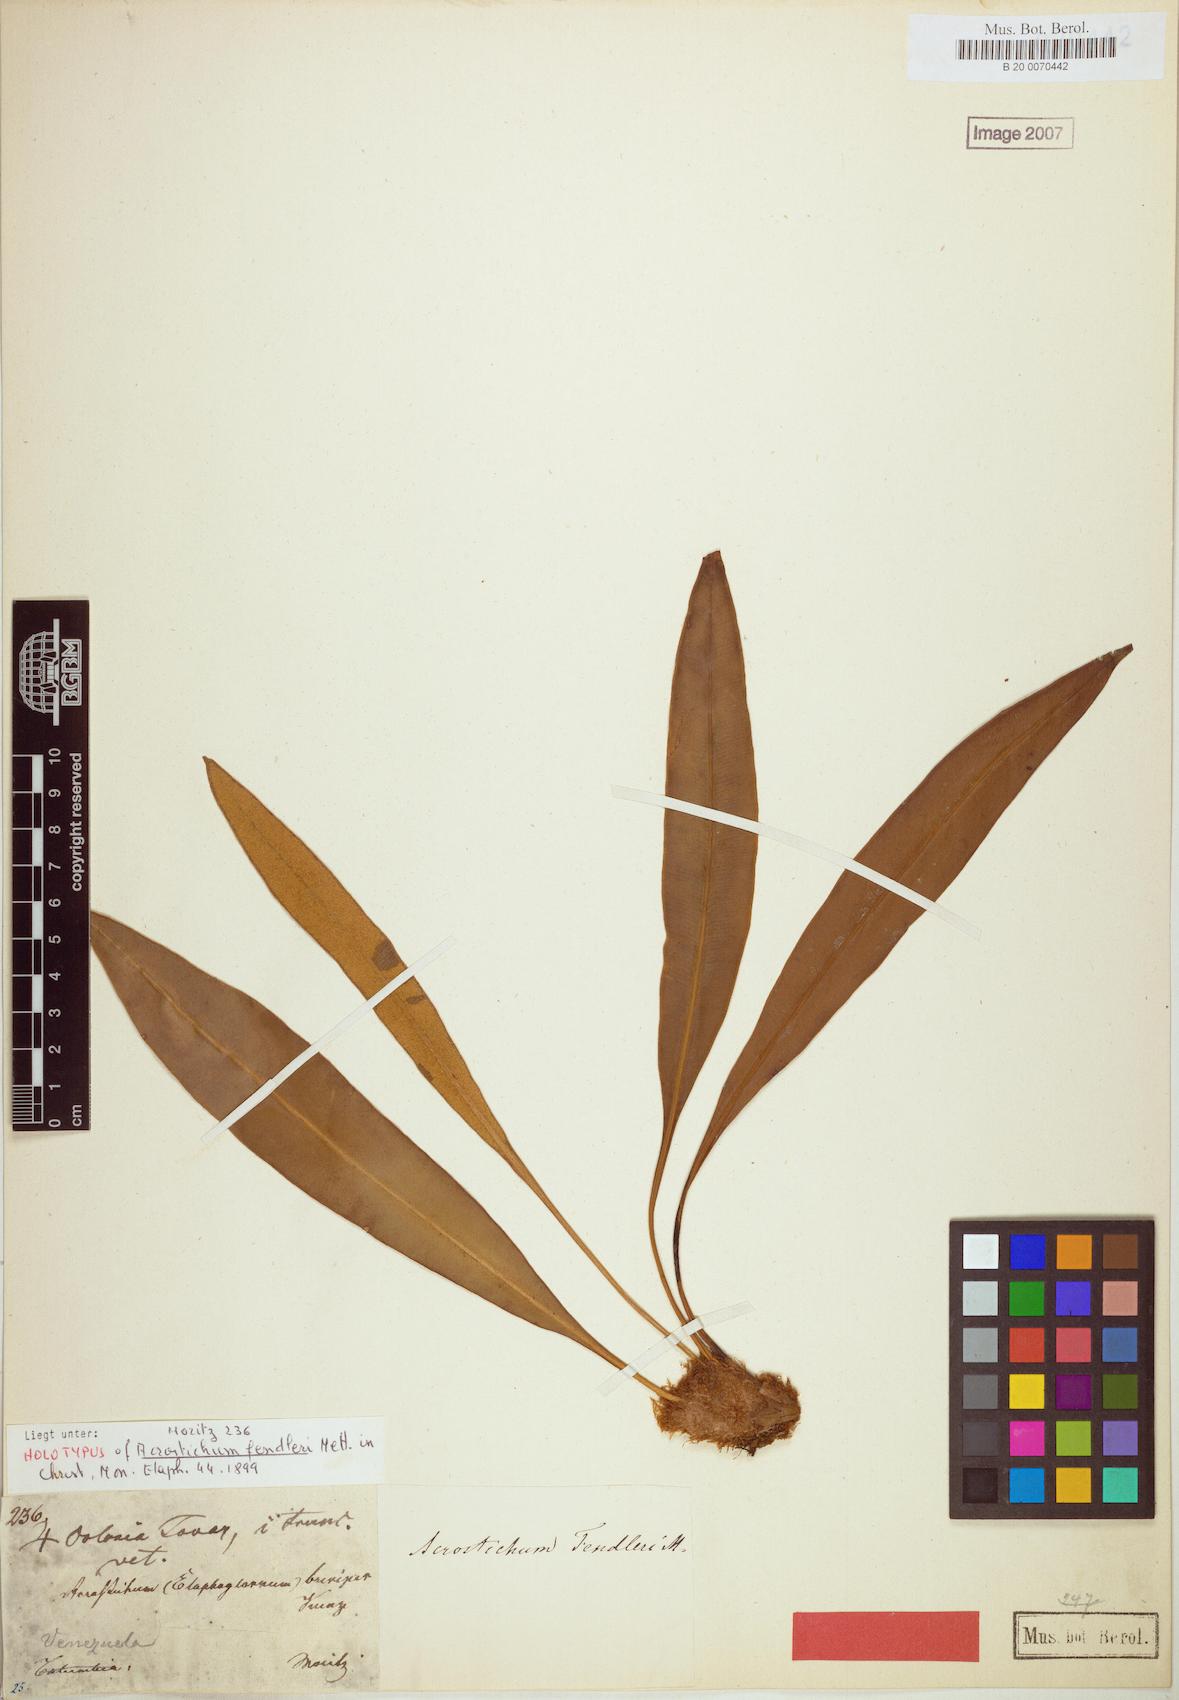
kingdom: Plantae
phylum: Tracheophyta
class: Polypodiopsida
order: Polypodiales
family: Dryopteridaceae
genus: Elaphoglossum
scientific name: Elaphoglossum
